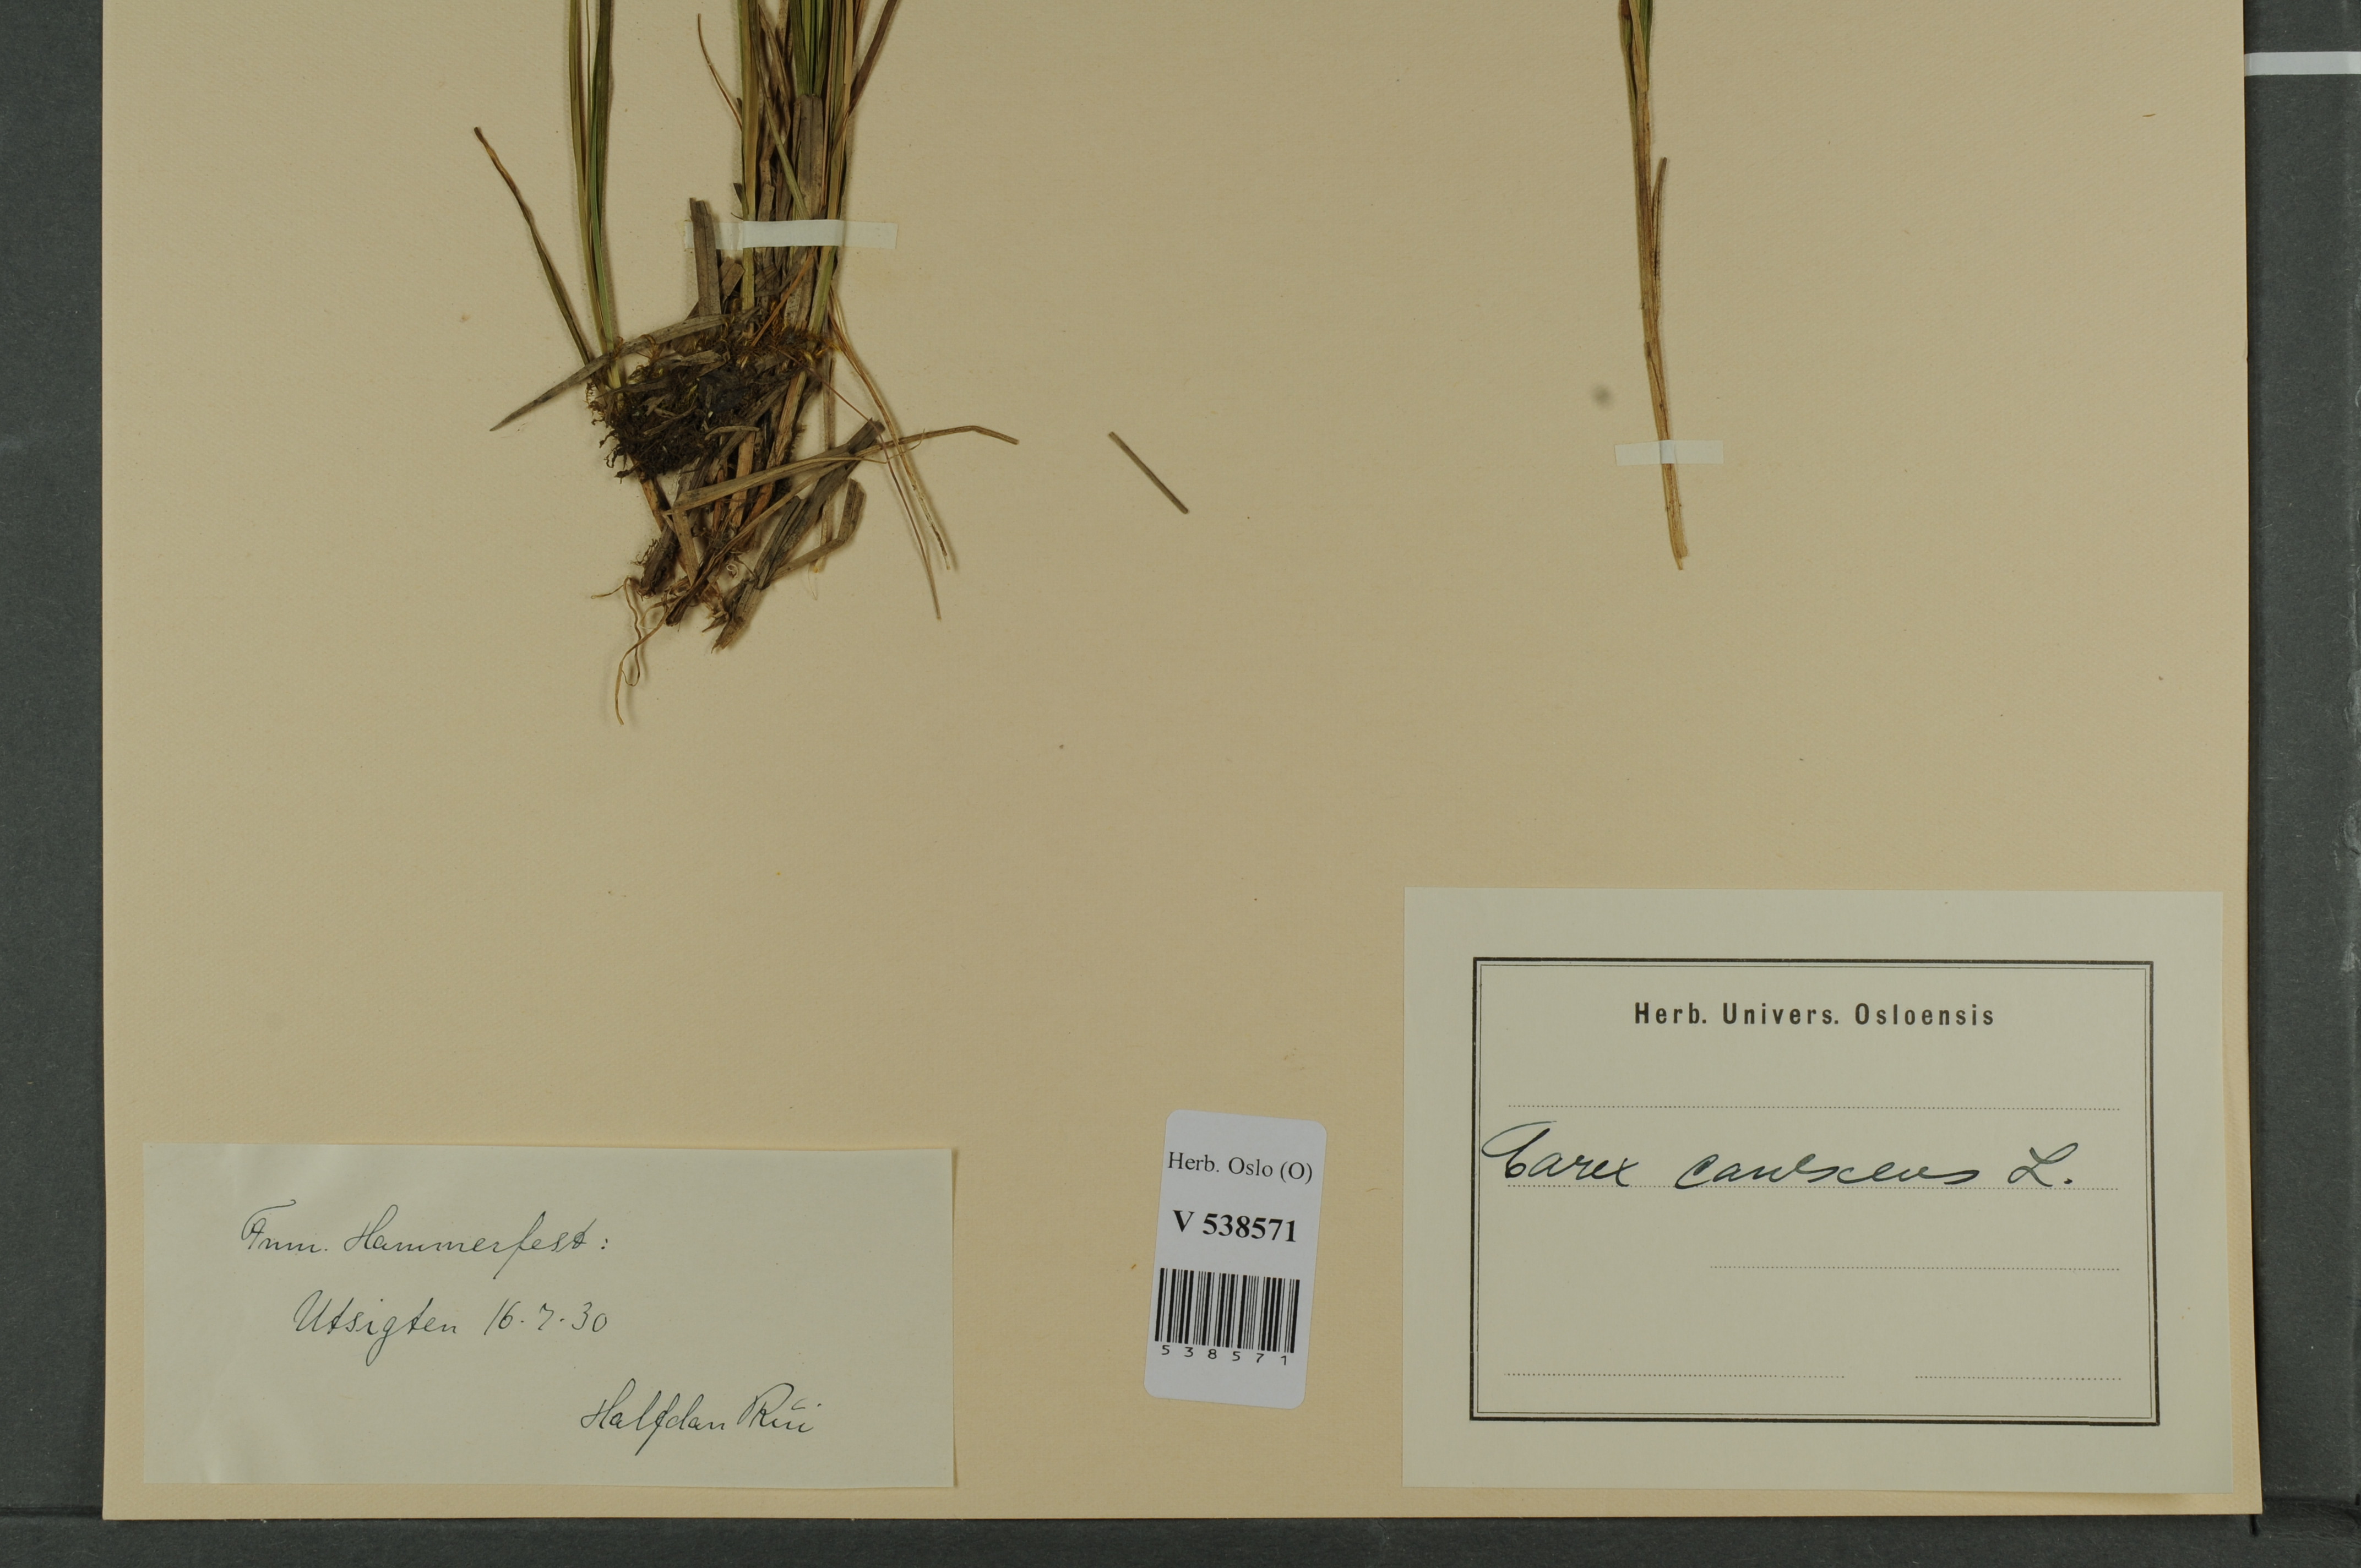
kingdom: Plantae
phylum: Tracheophyta
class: Liliopsida
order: Poales
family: Cyperaceae
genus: Carex
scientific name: Carex canescens
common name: White sedge
